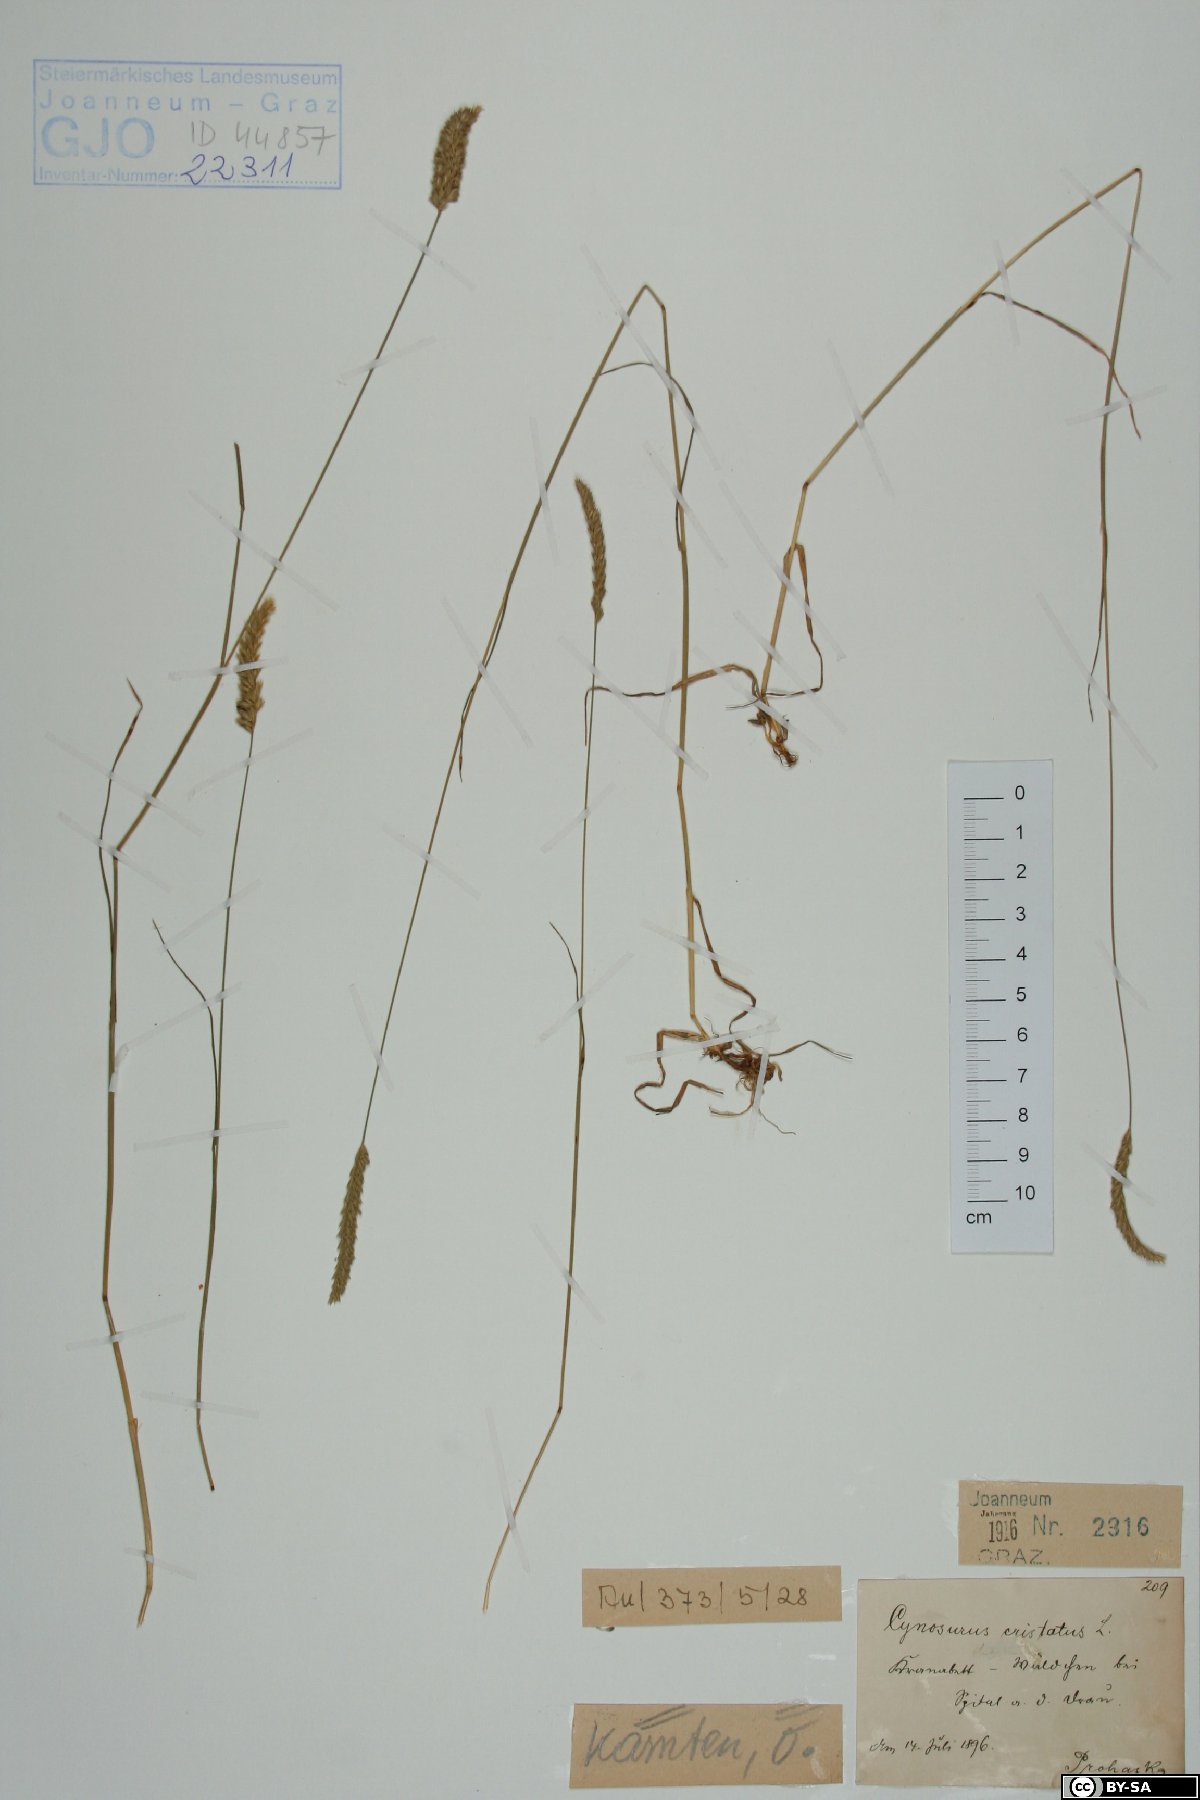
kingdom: Plantae
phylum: Tracheophyta
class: Liliopsida
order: Poales
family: Poaceae
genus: Cynosurus
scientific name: Cynosurus cristatus
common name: Crested dog's-tail
